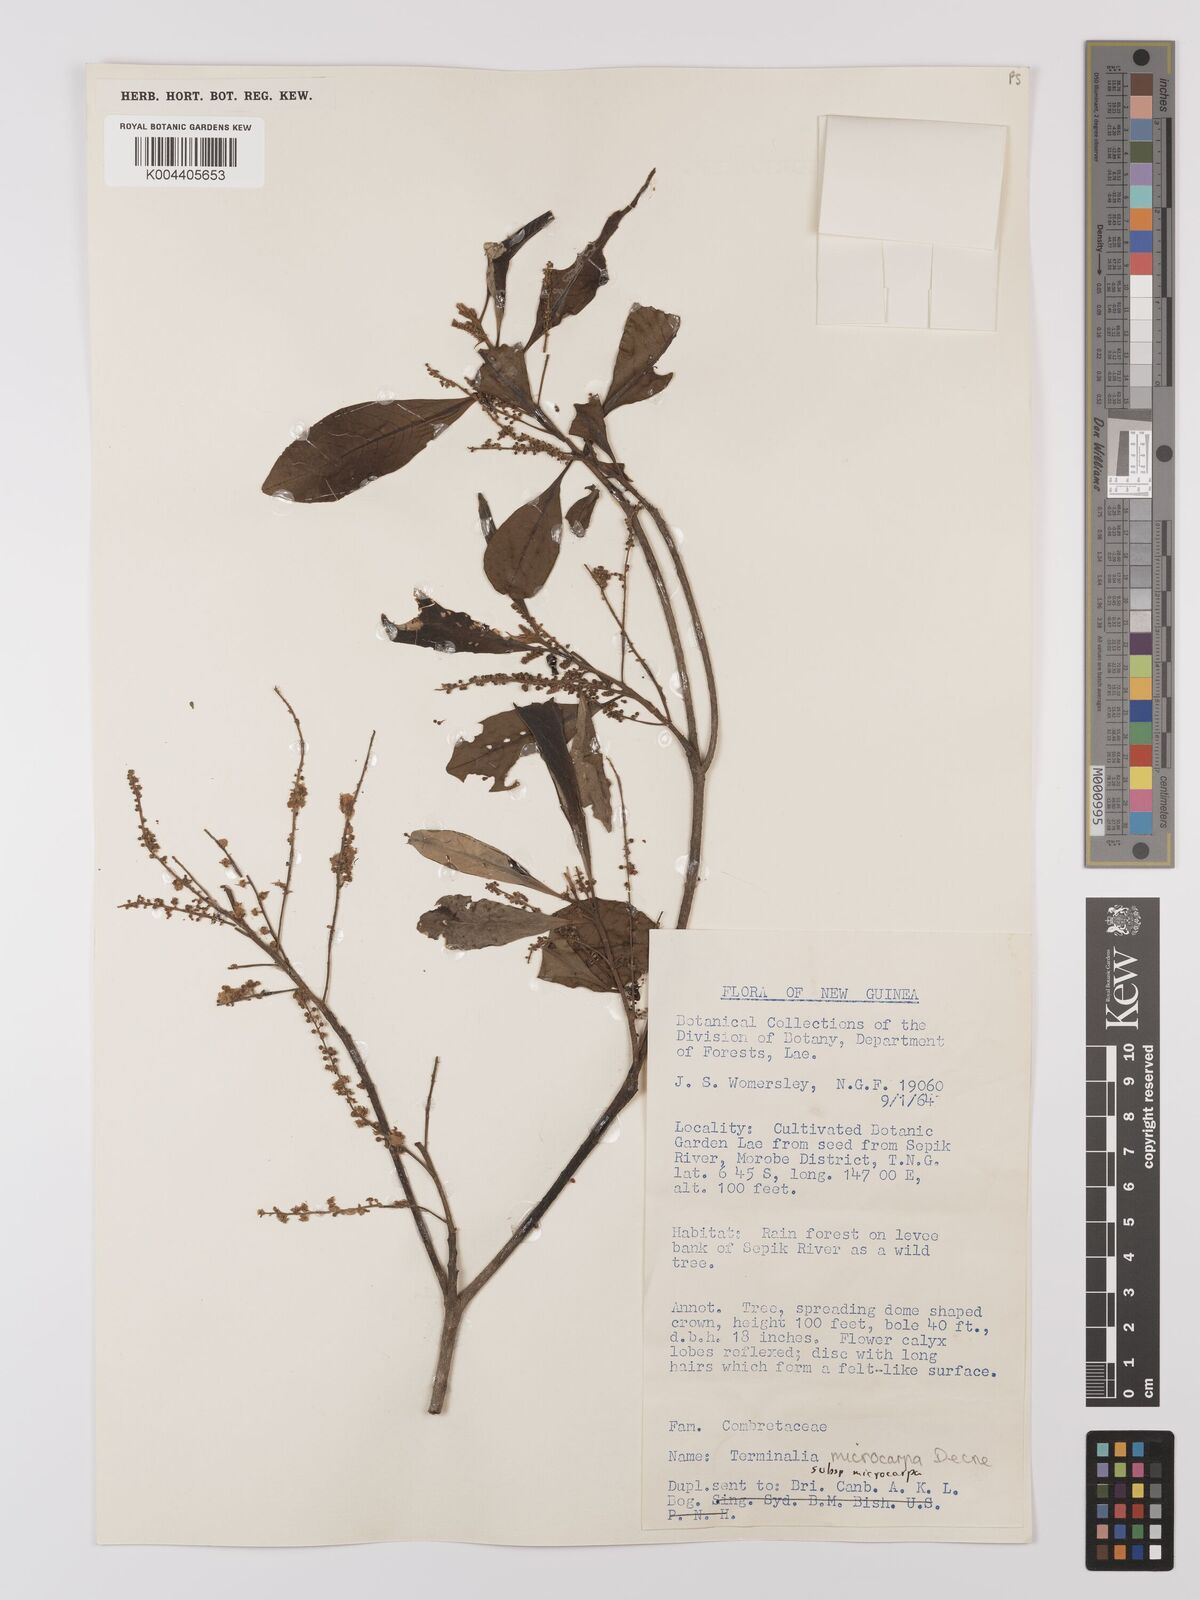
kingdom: Plantae
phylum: Tracheophyta
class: Magnoliopsida
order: Myrtales
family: Combretaceae
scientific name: Combretaceae
